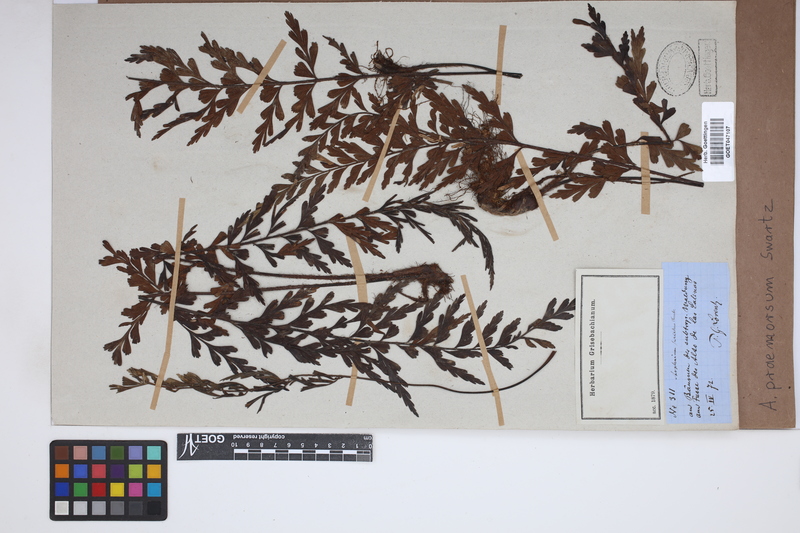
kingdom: Plantae
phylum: Tracheophyta
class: Polypodiopsida
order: Polypodiales
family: Aspleniaceae
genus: Asplenium
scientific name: Asplenium praemorsum
